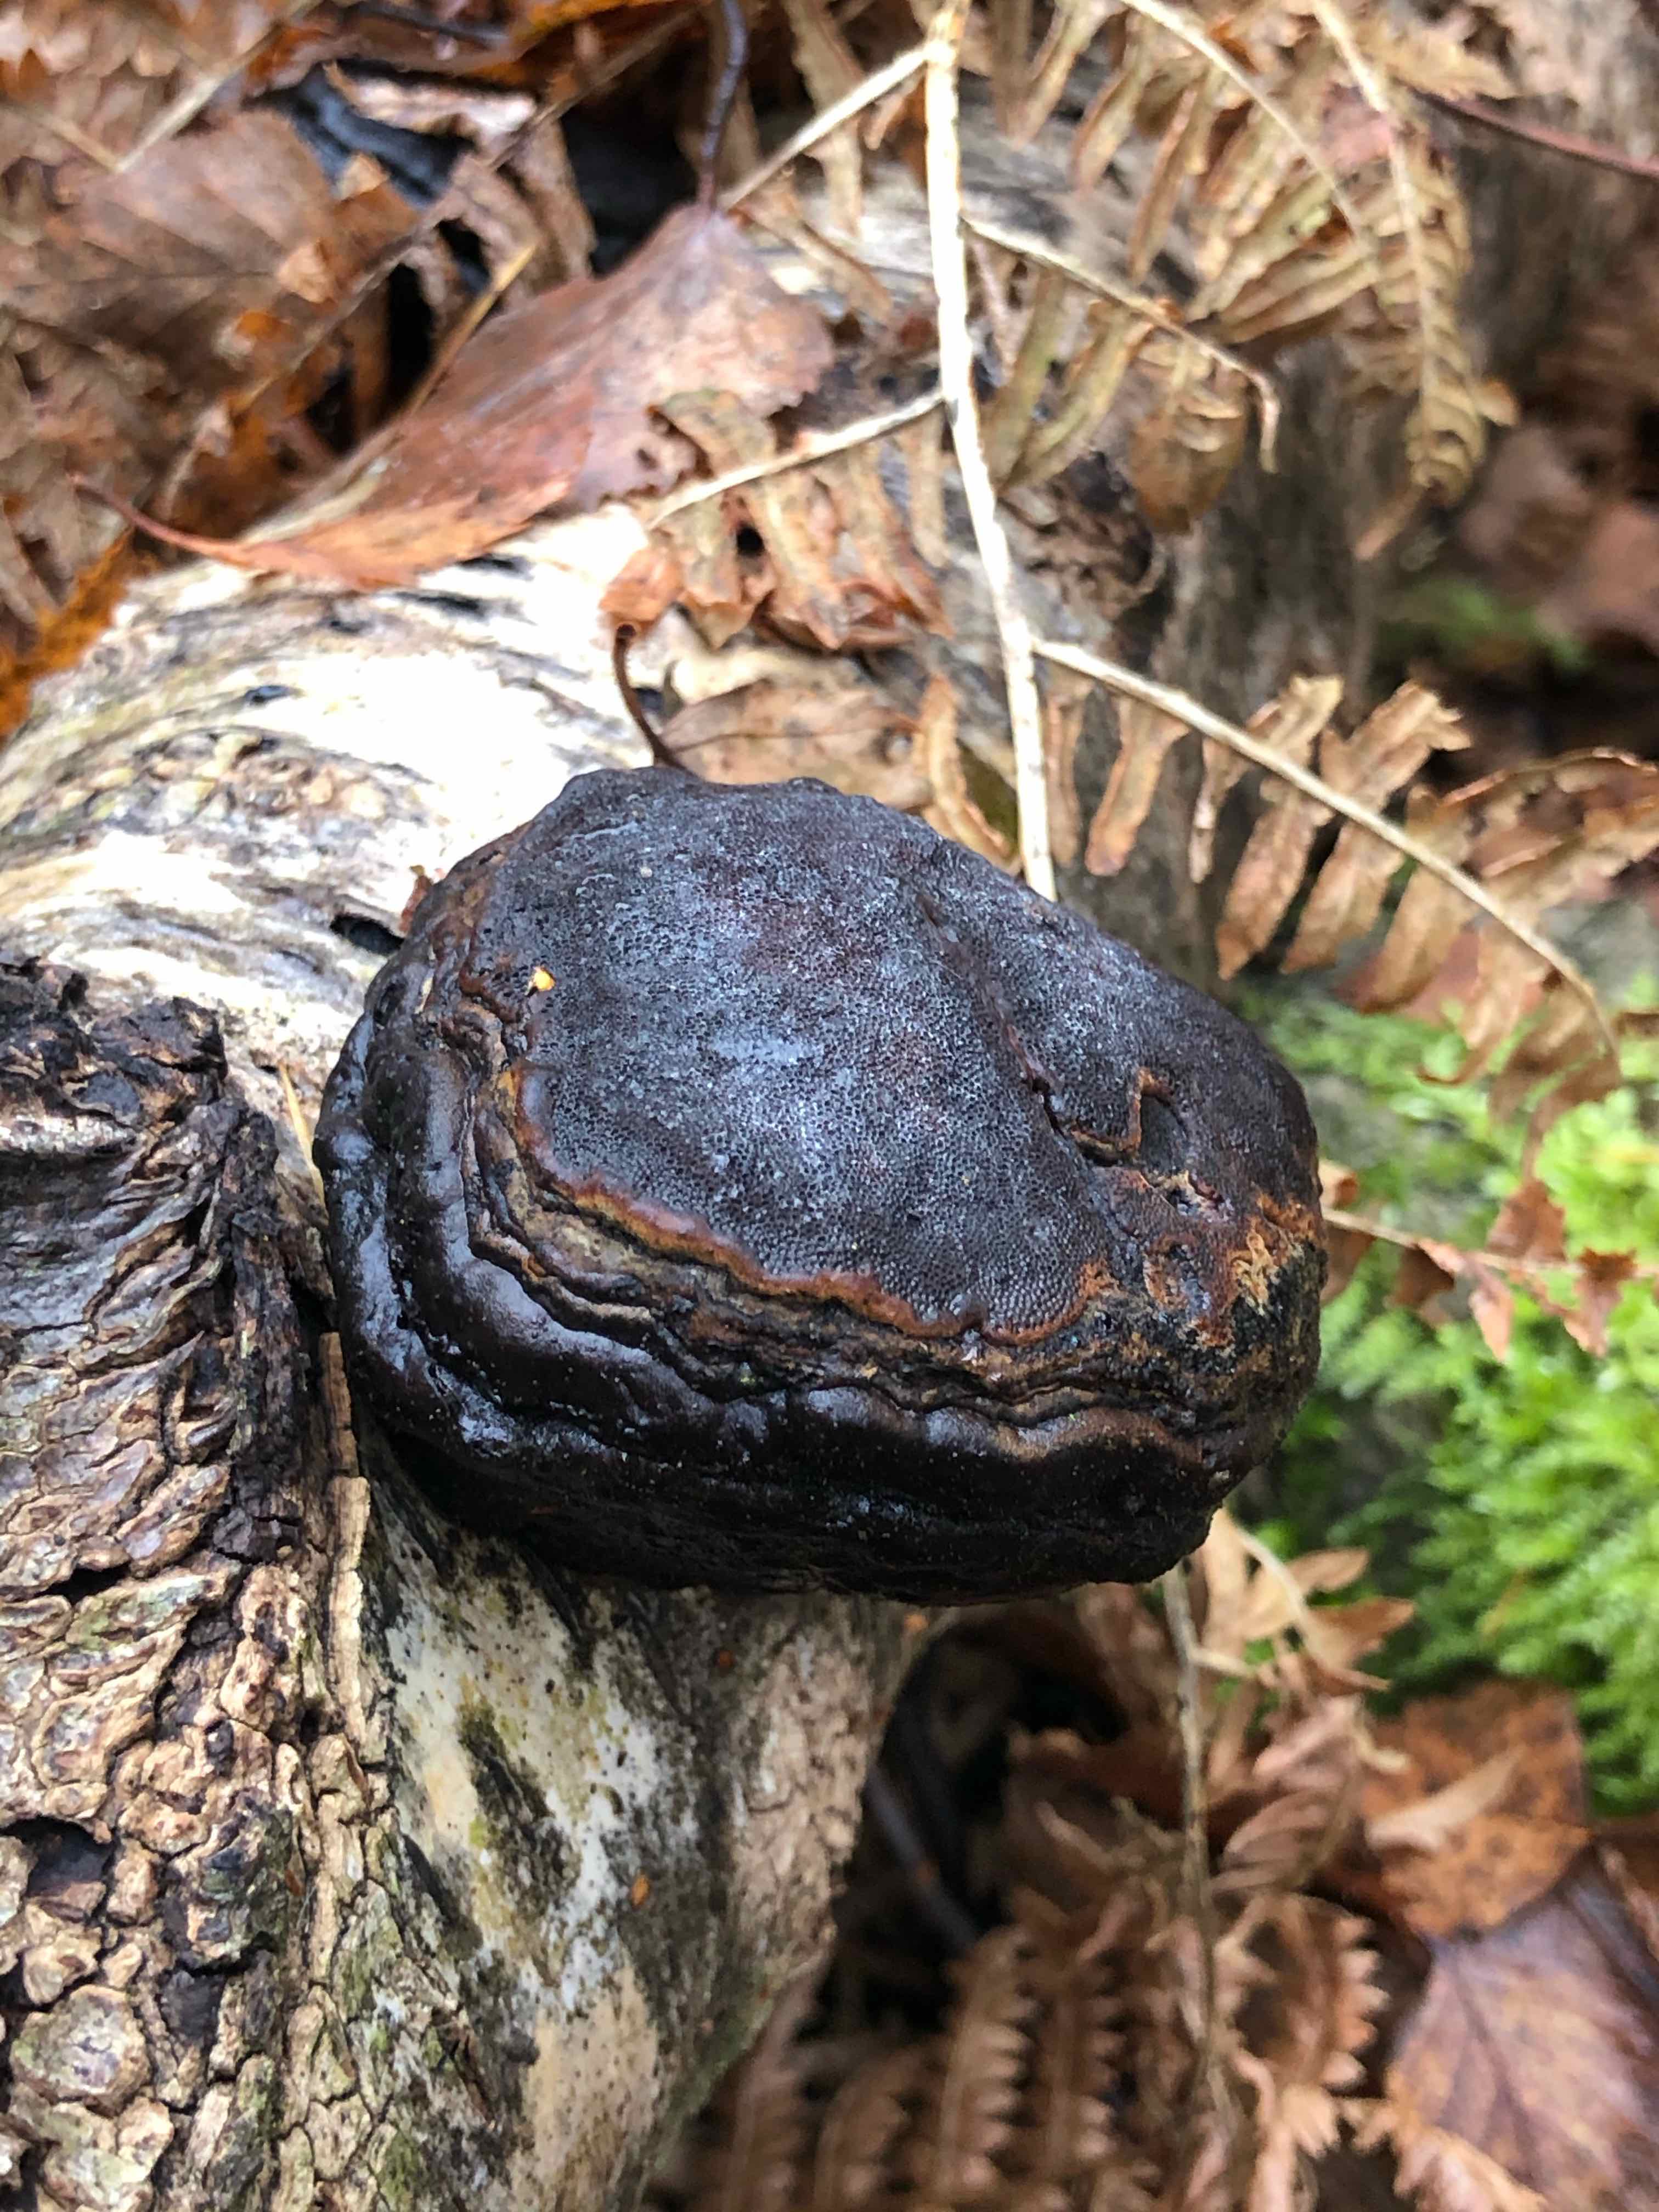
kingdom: Fungi
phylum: Basidiomycota
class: Agaricomycetes
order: Polyporales
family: Polyporaceae
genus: Fomes
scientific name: Fomes fomentarius
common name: tøndersvamp
